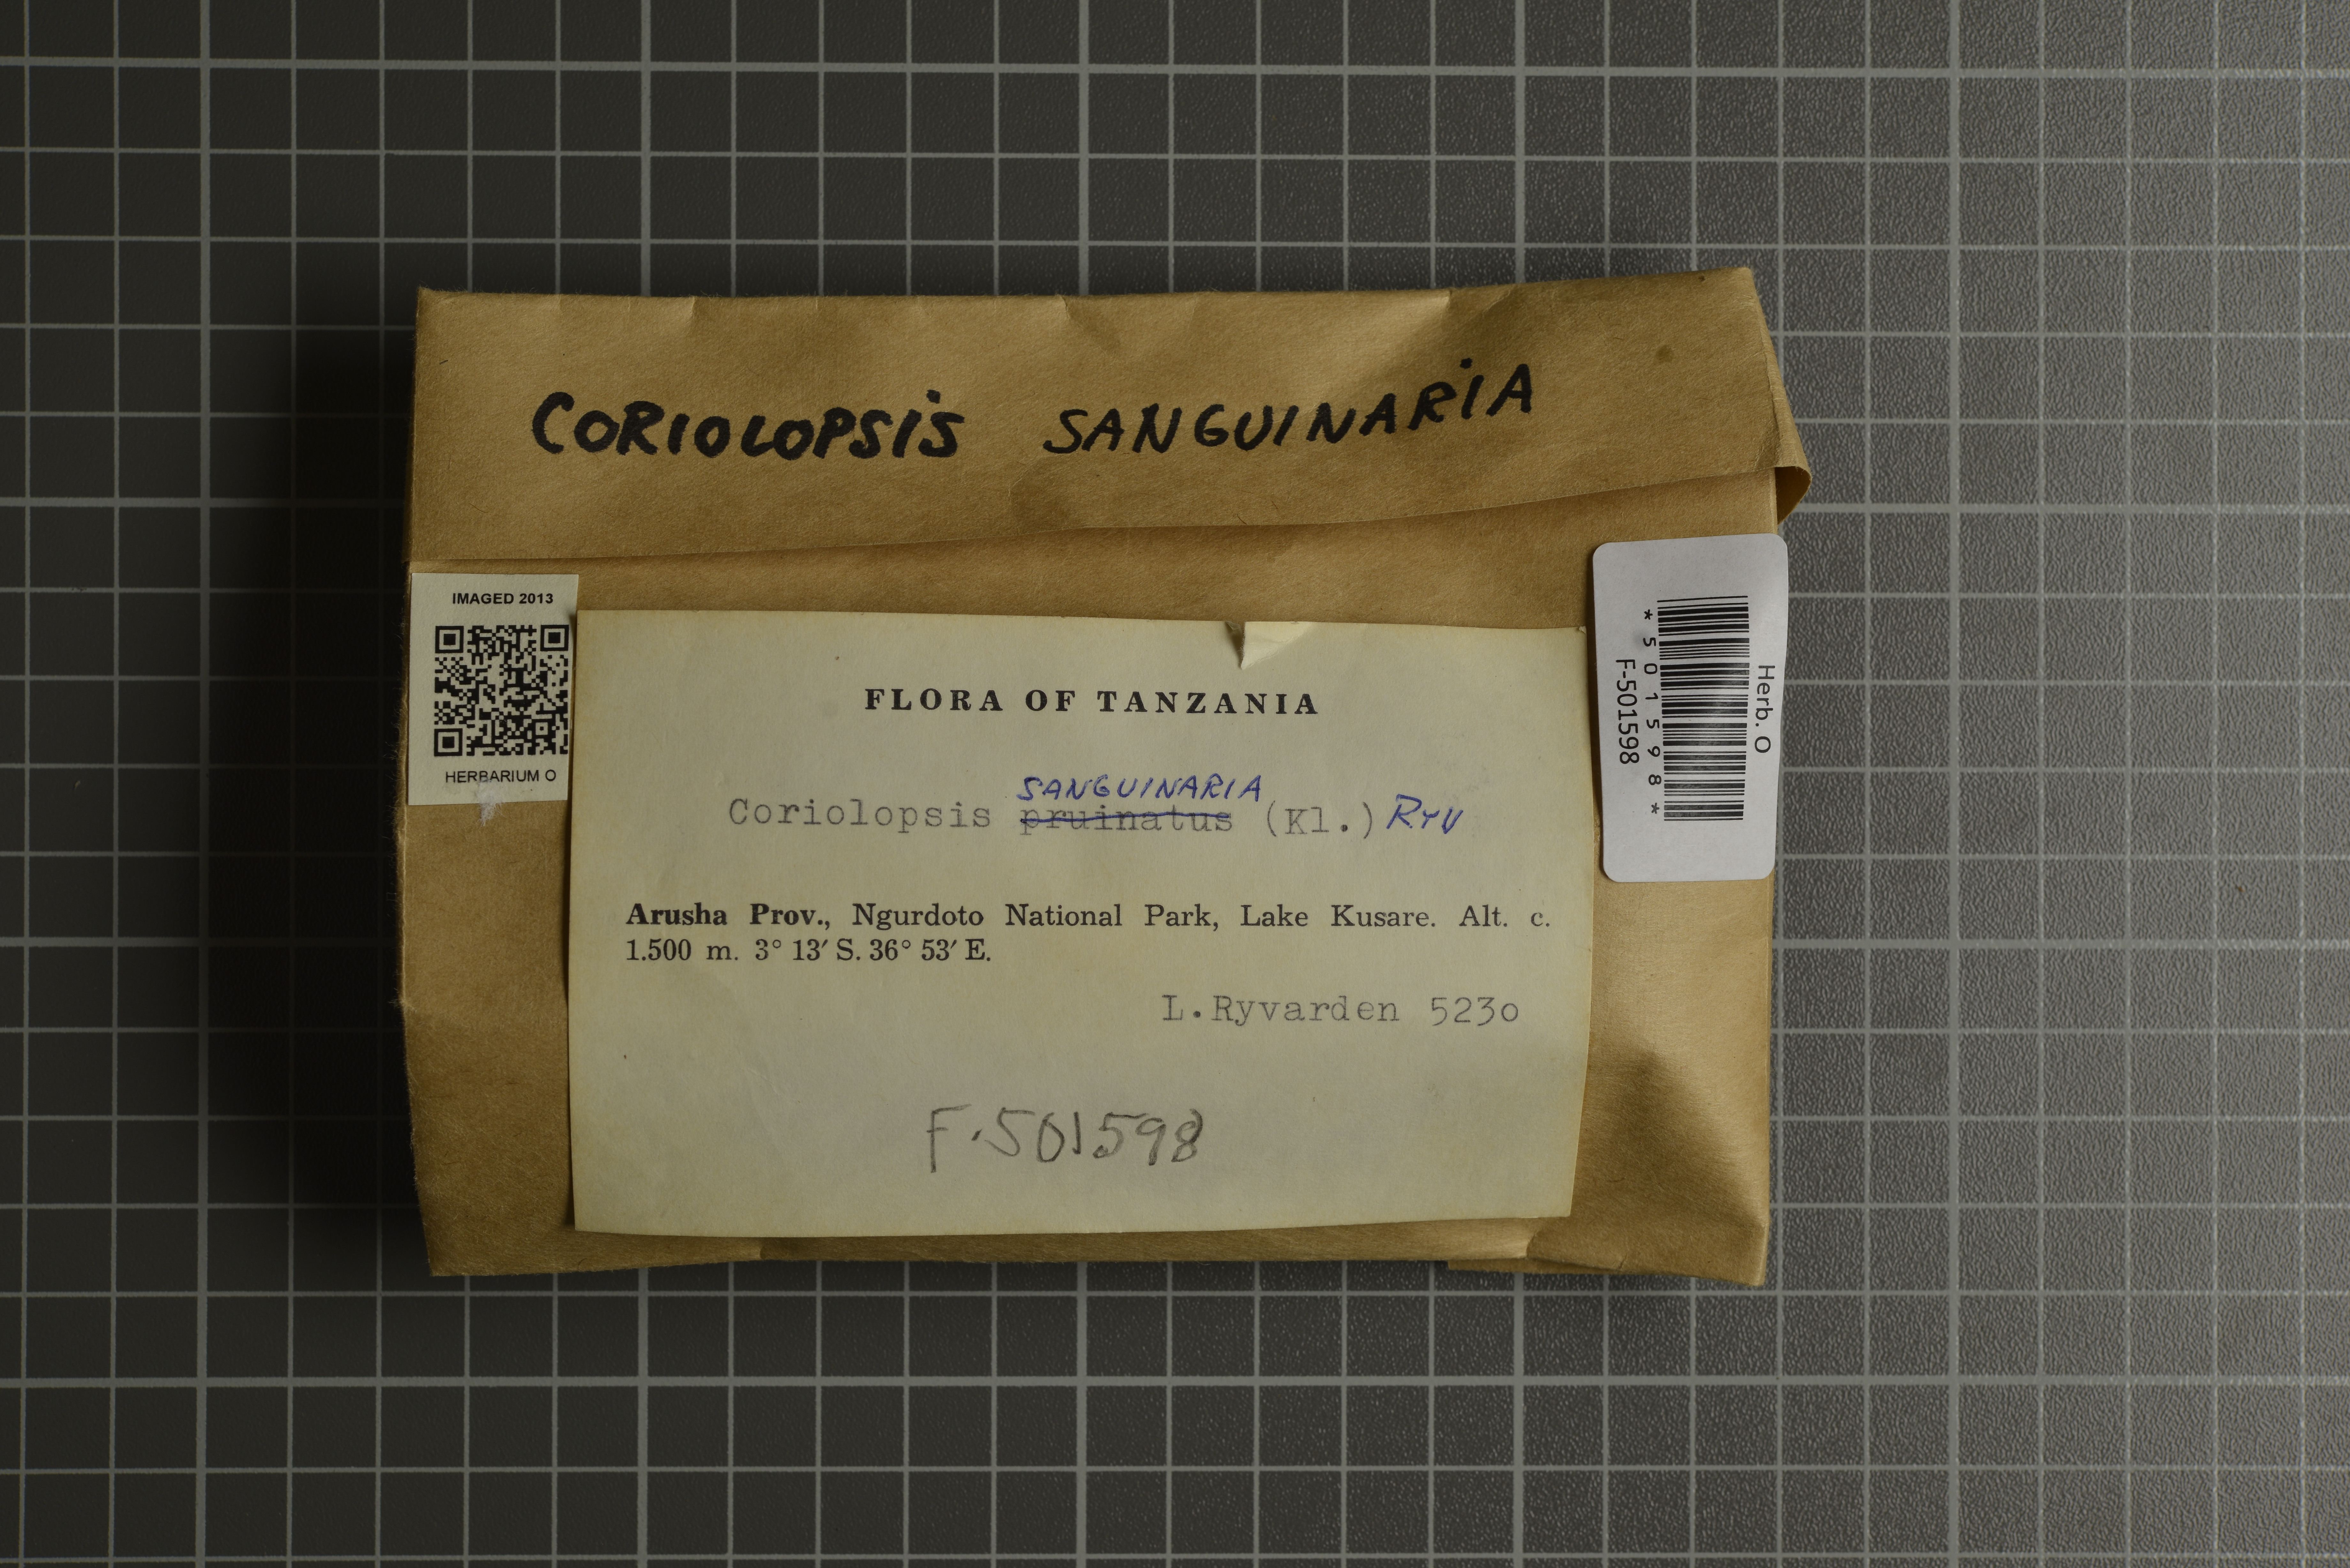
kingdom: Fungi
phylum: Basidiomycota
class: Agaricomycetes
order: Polyporales
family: Polyporaceae
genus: Funalia
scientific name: Funalia sanguinaria
